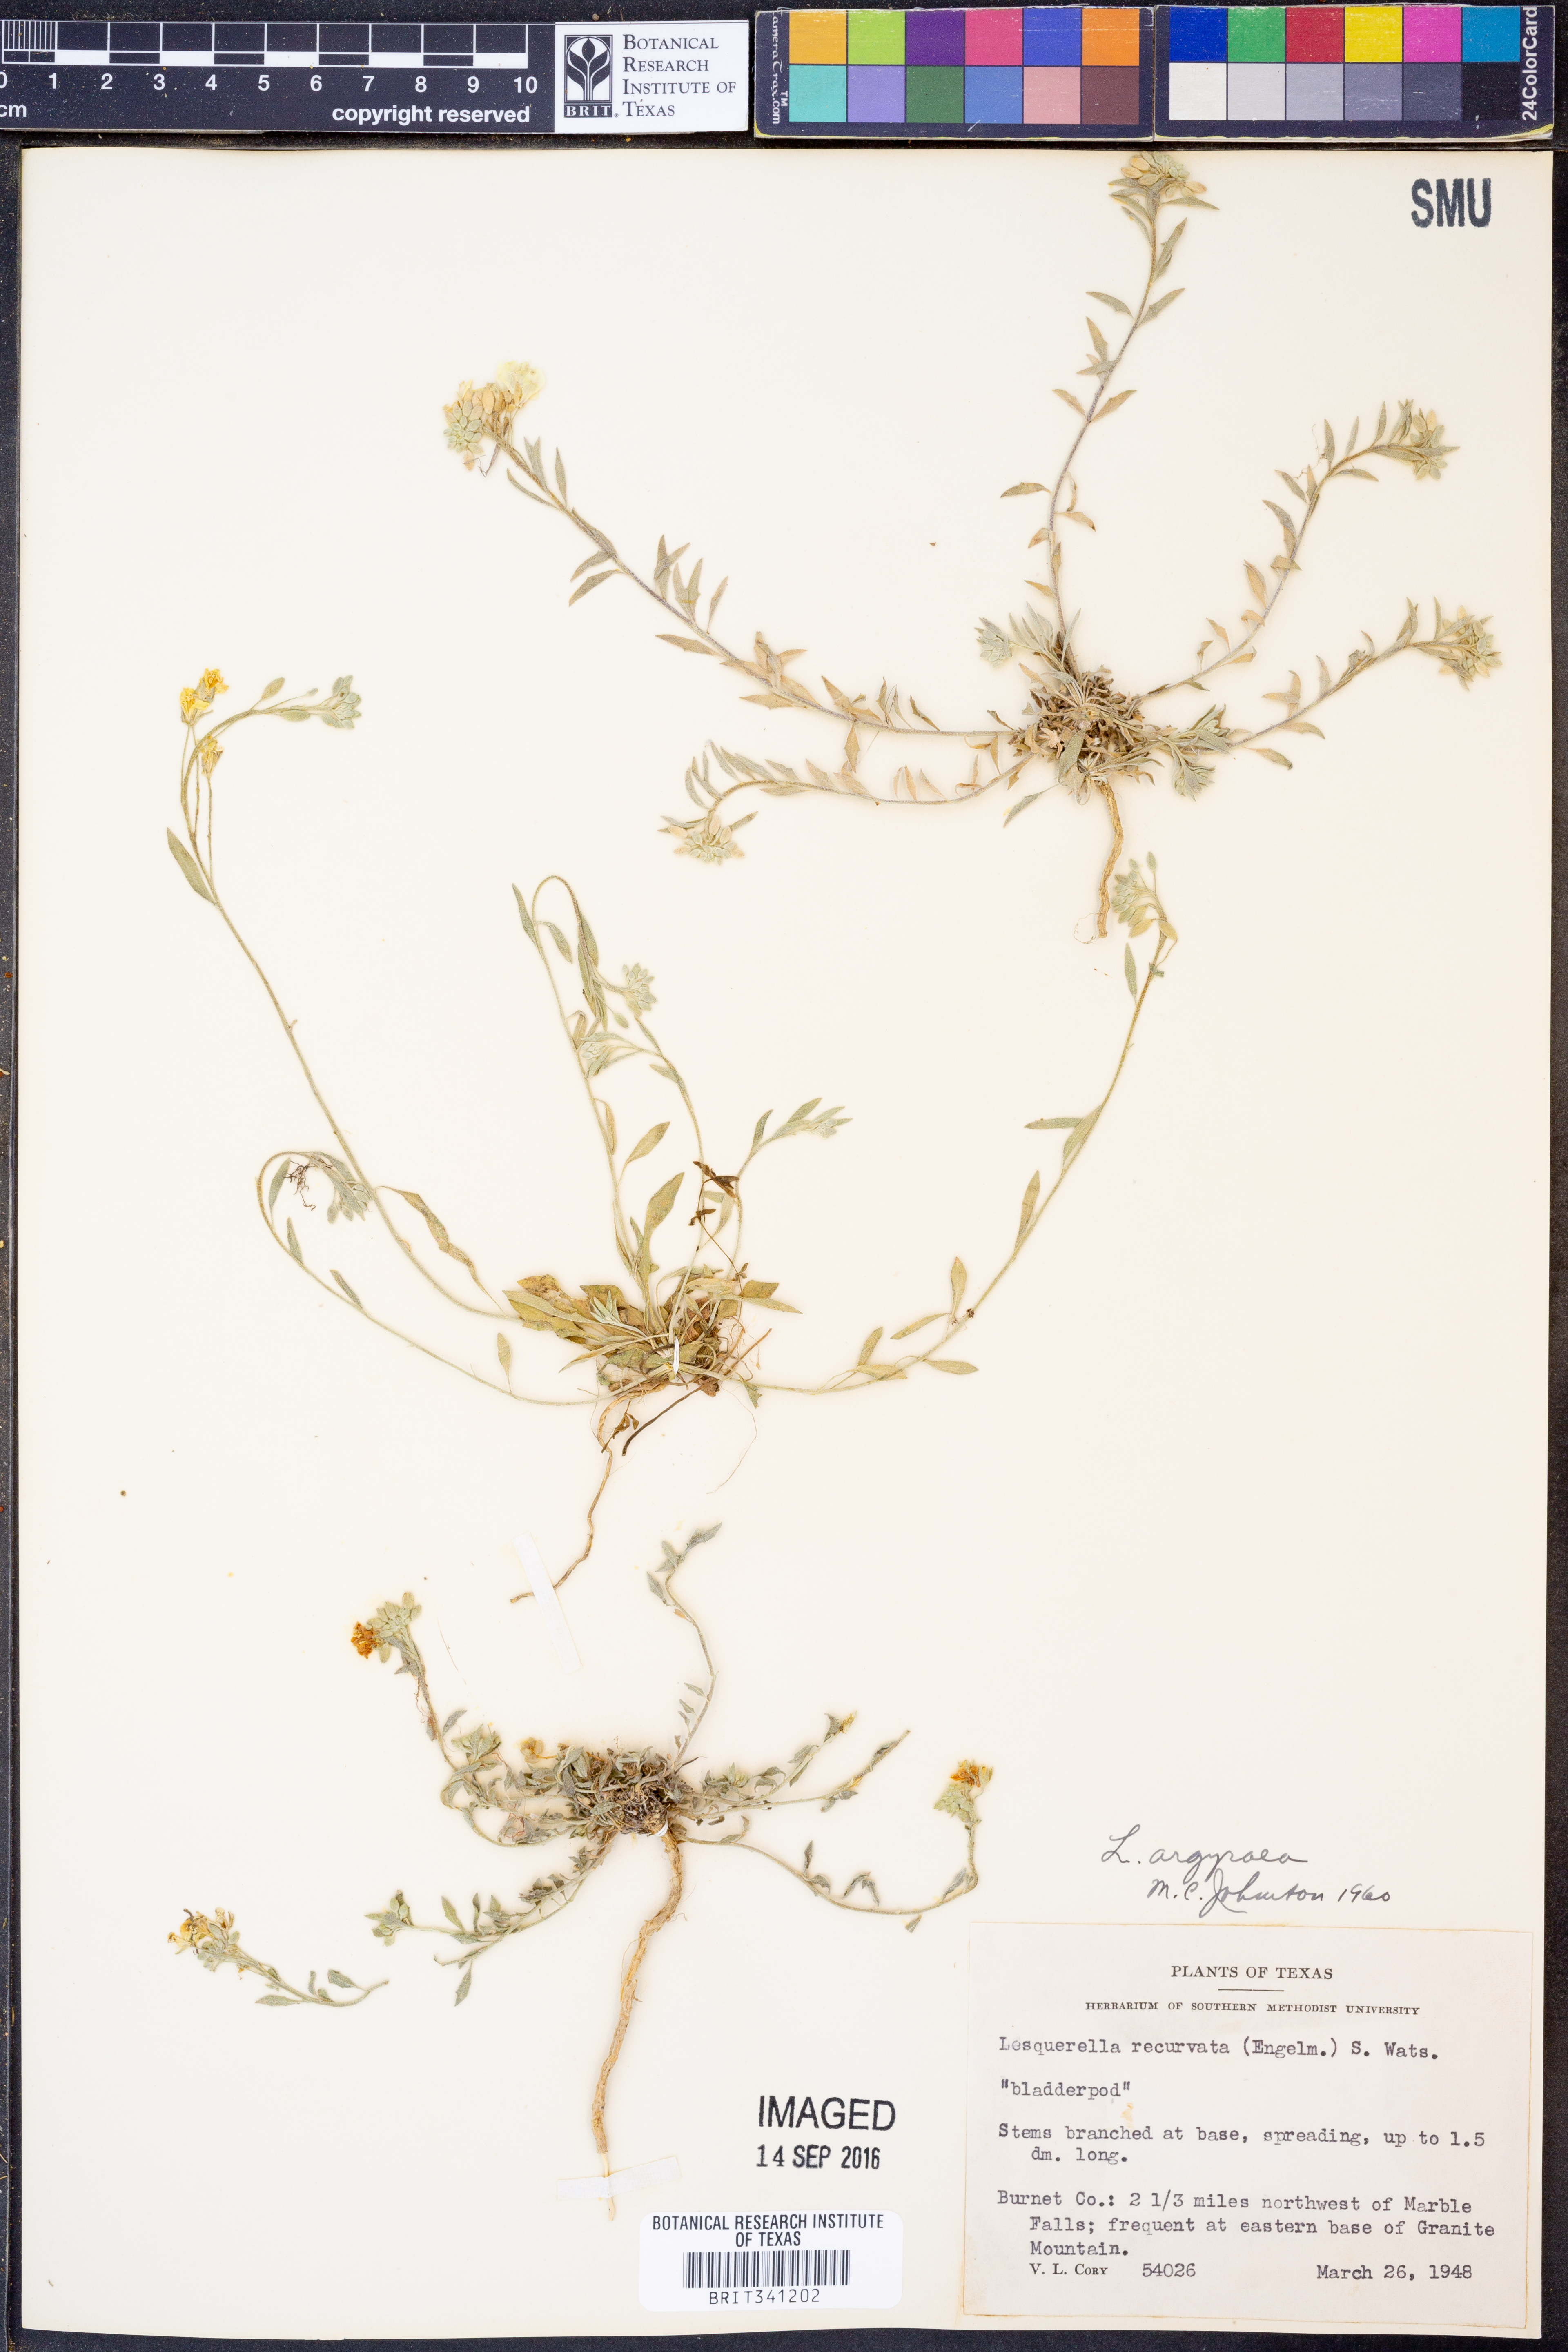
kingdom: Plantae
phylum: Tracheophyta
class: Magnoliopsida
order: Brassicales
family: Brassicaceae
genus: Physaria
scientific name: Physaria argyraea
